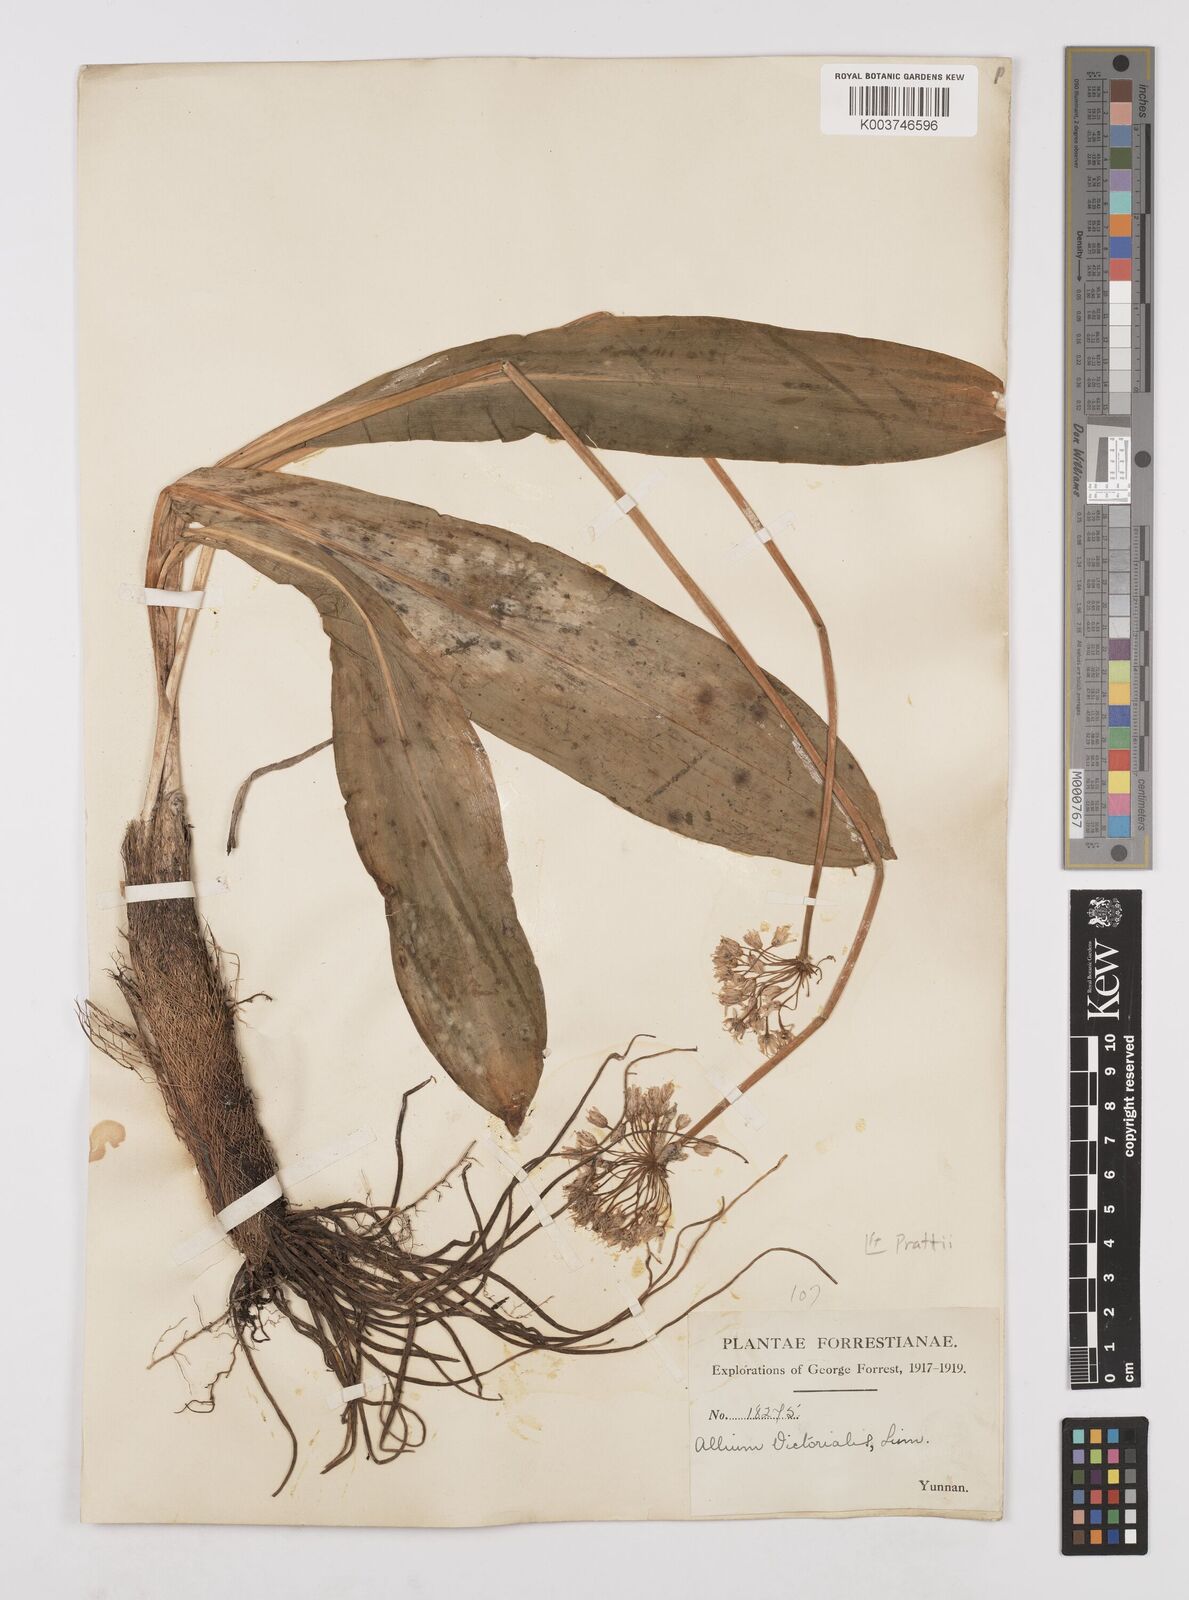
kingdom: Plantae
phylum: Tracheophyta
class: Liliopsida
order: Asparagales
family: Amaryllidaceae
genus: Allium
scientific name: Allium victorialis
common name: Alpine leek
